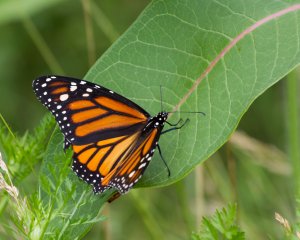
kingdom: Animalia
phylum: Arthropoda
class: Insecta
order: Lepidoptera
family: Nymphalidae
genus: Danaus
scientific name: Danaus plexippus
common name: Monarch
